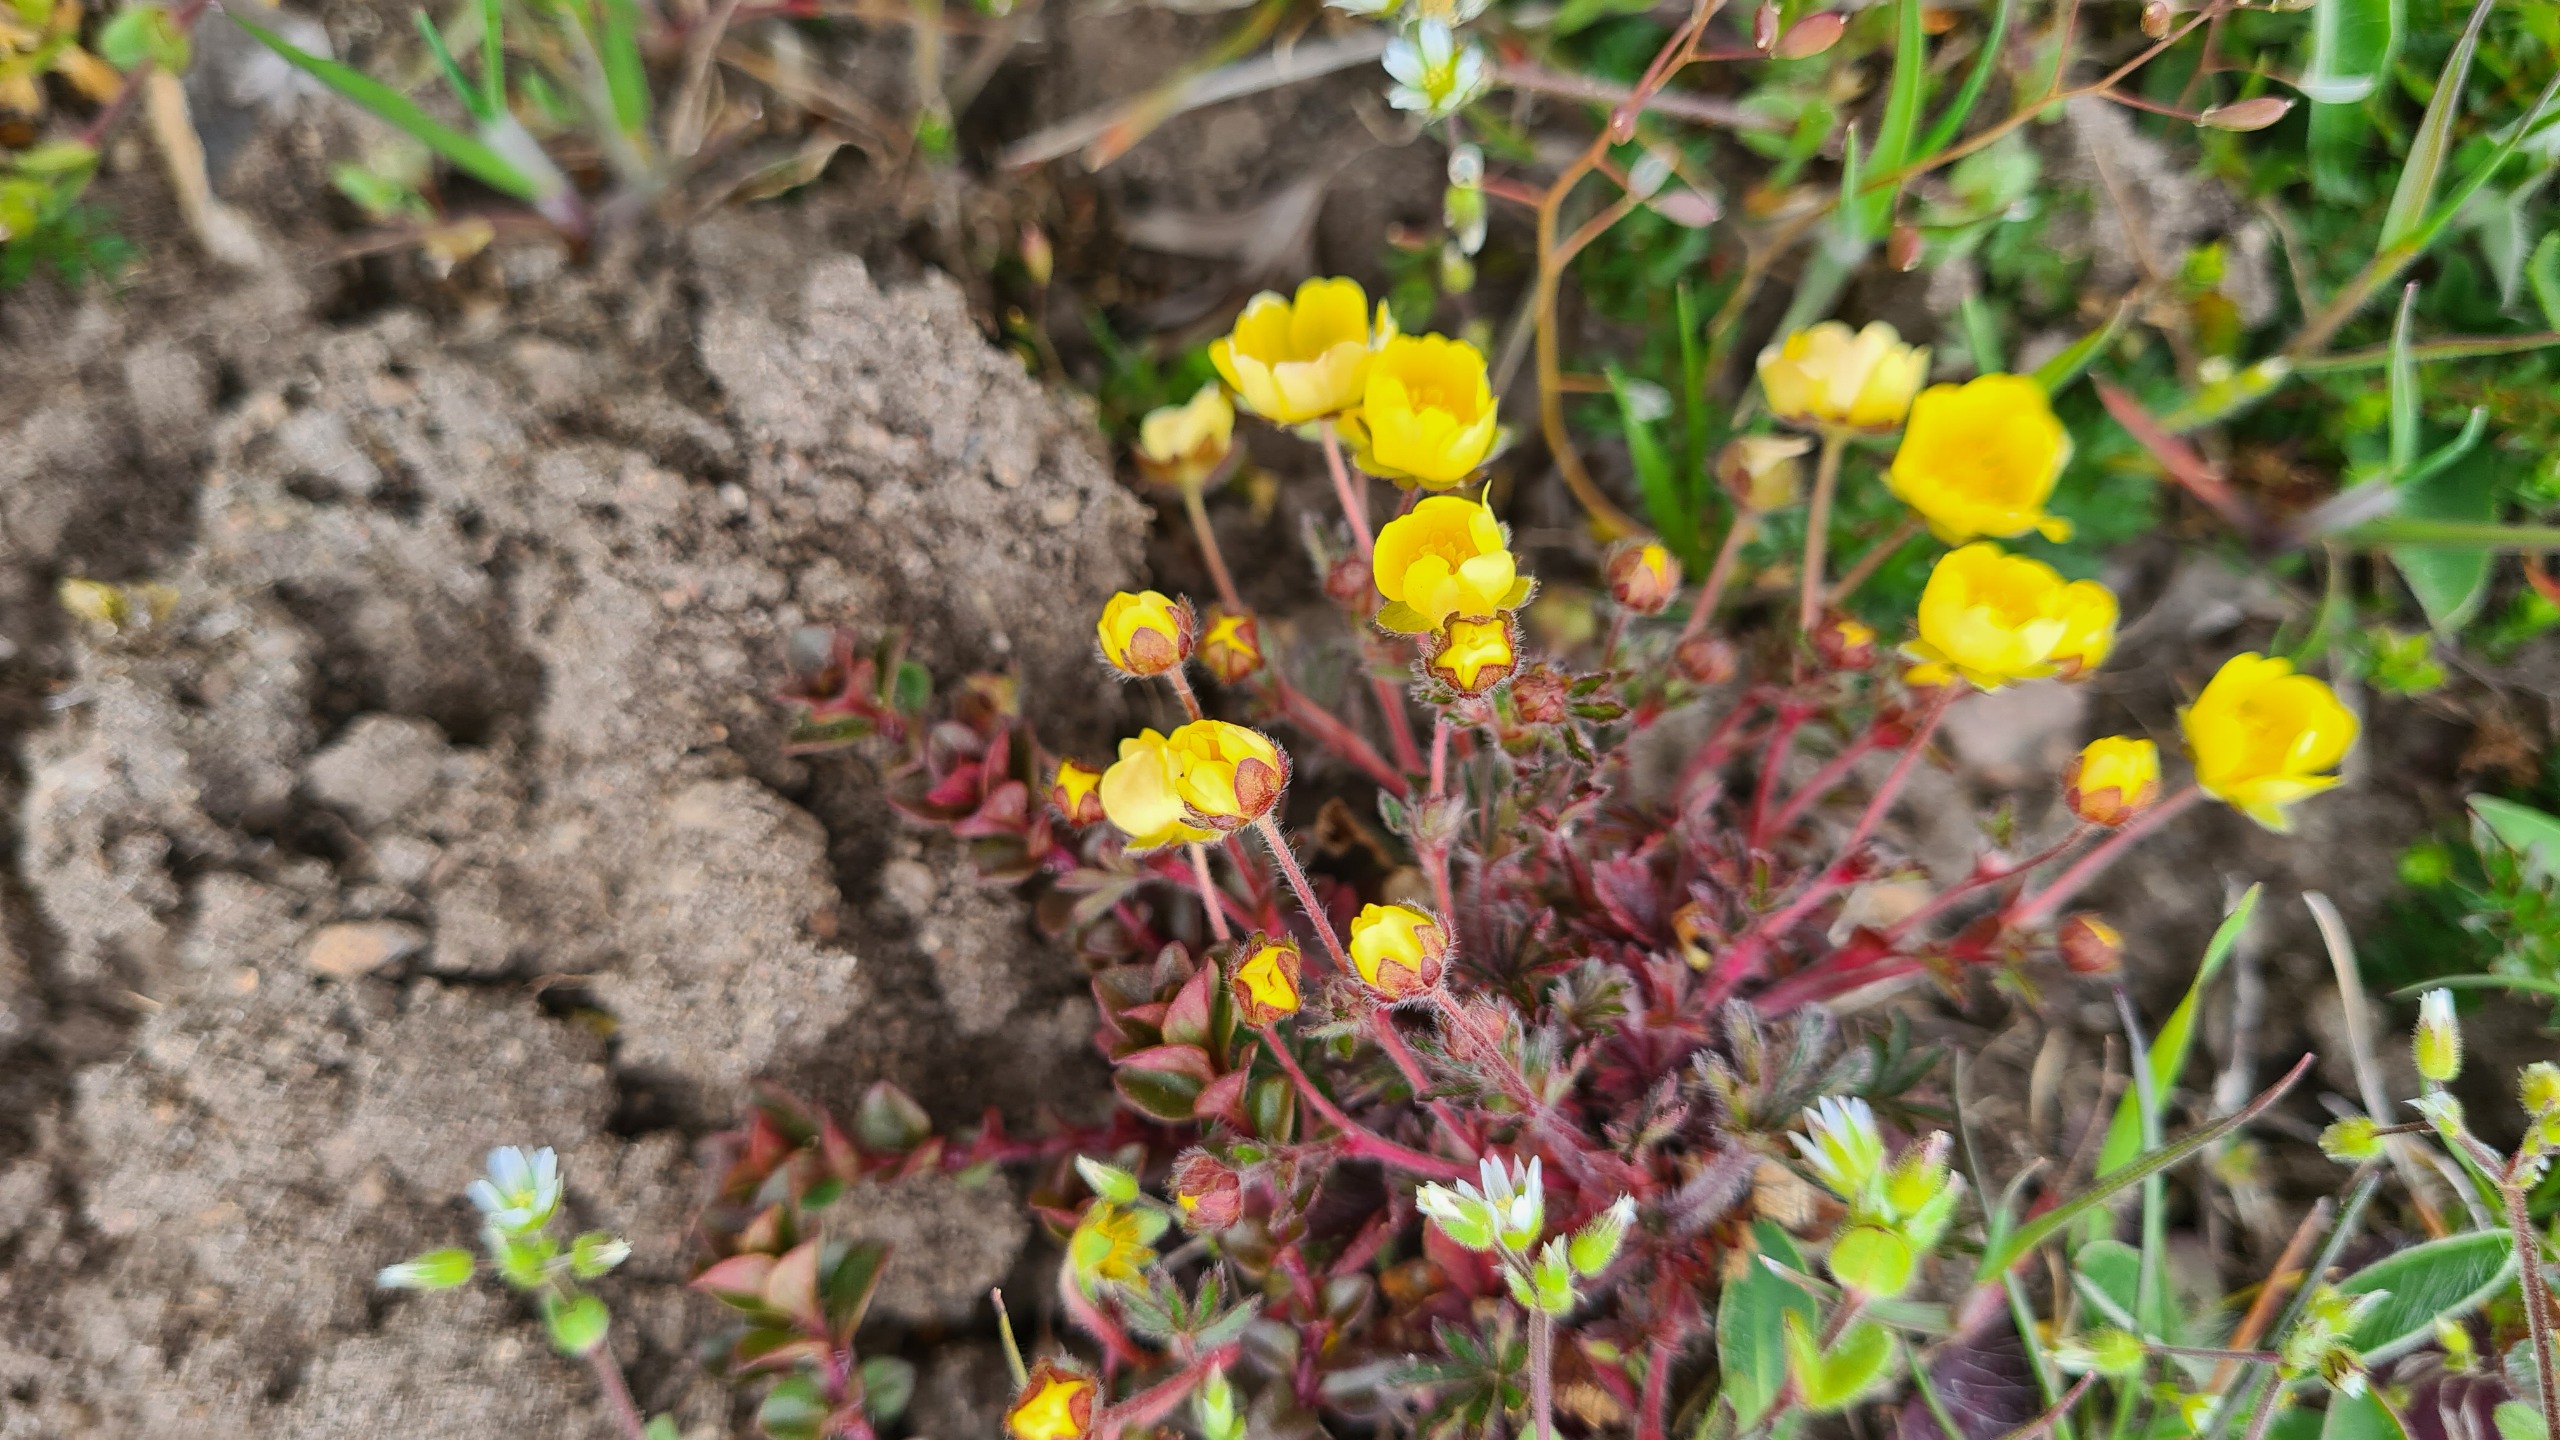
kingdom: Plantae
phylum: Tracheophyta
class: Magnoliopsida
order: Rosales
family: Rosaceae
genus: Potentilla
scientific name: Potentilla heptaphylla
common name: Mat potentil
